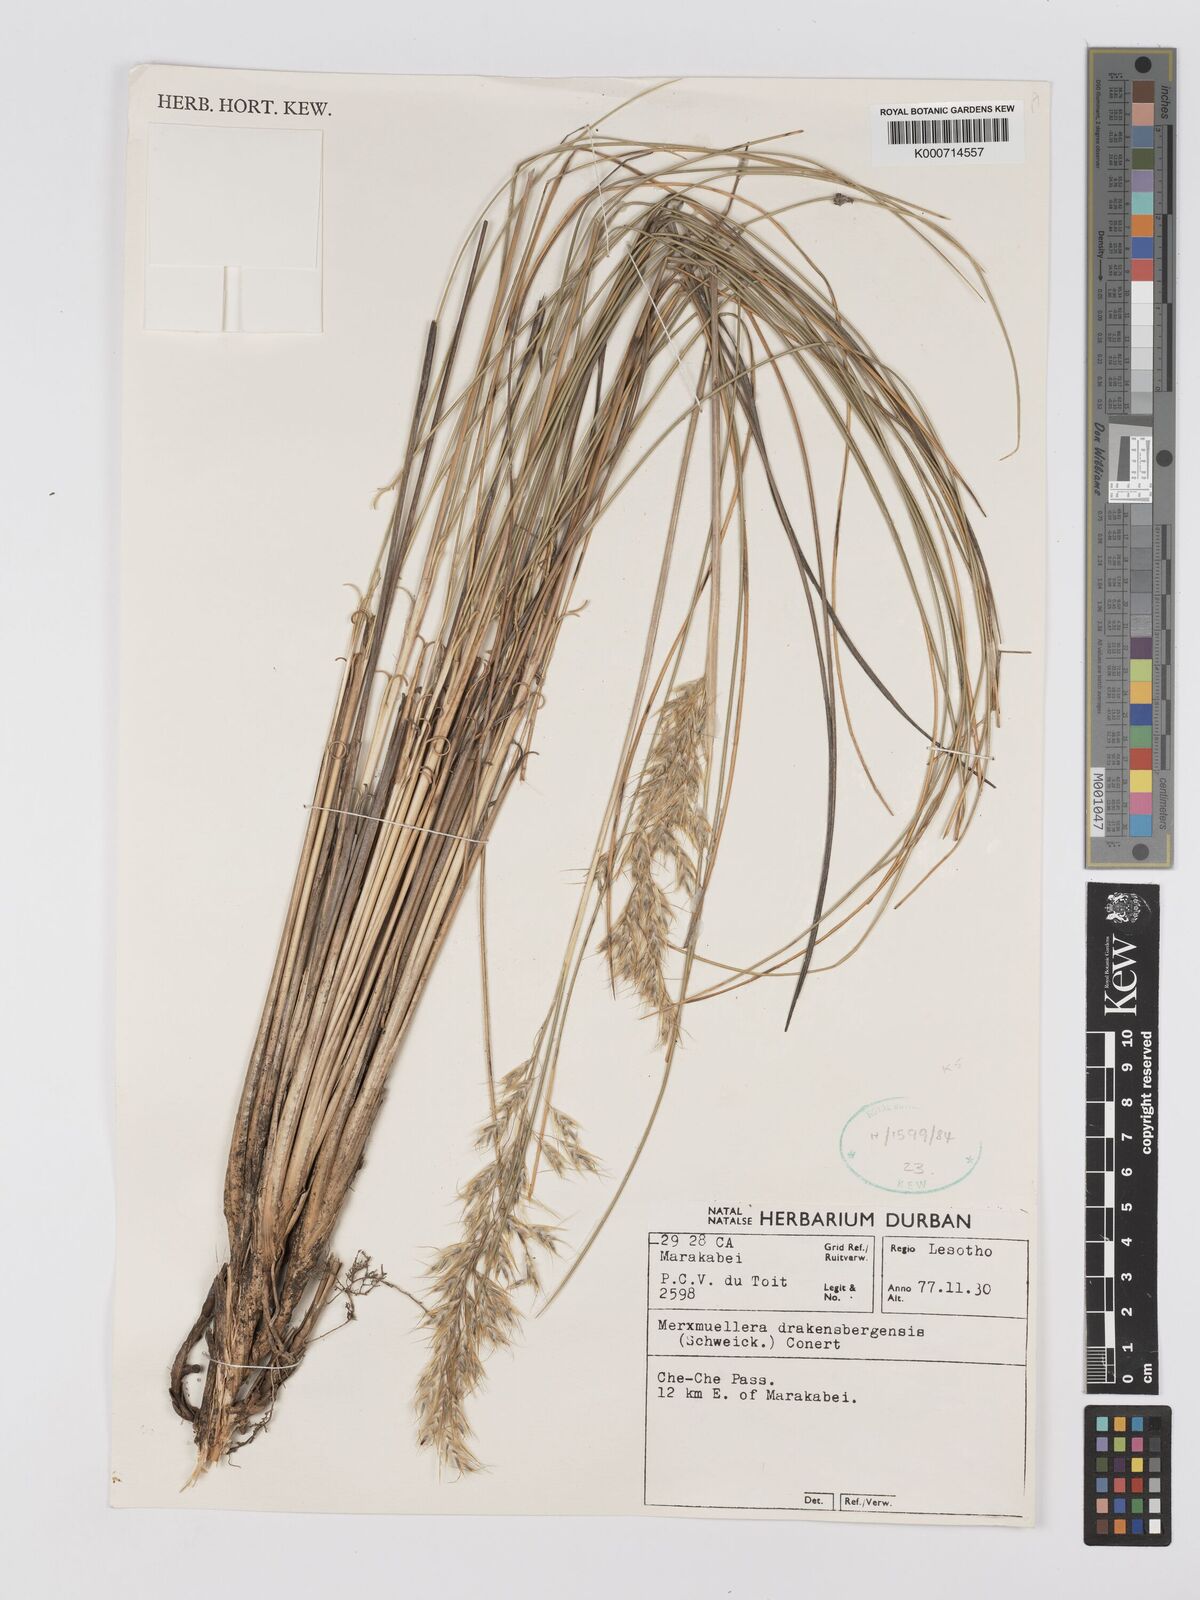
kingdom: Plantae
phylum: Tracheophyta
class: Liliopsida
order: Poales
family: Poaceae
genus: Rytidosperma
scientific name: Rytidosperma
